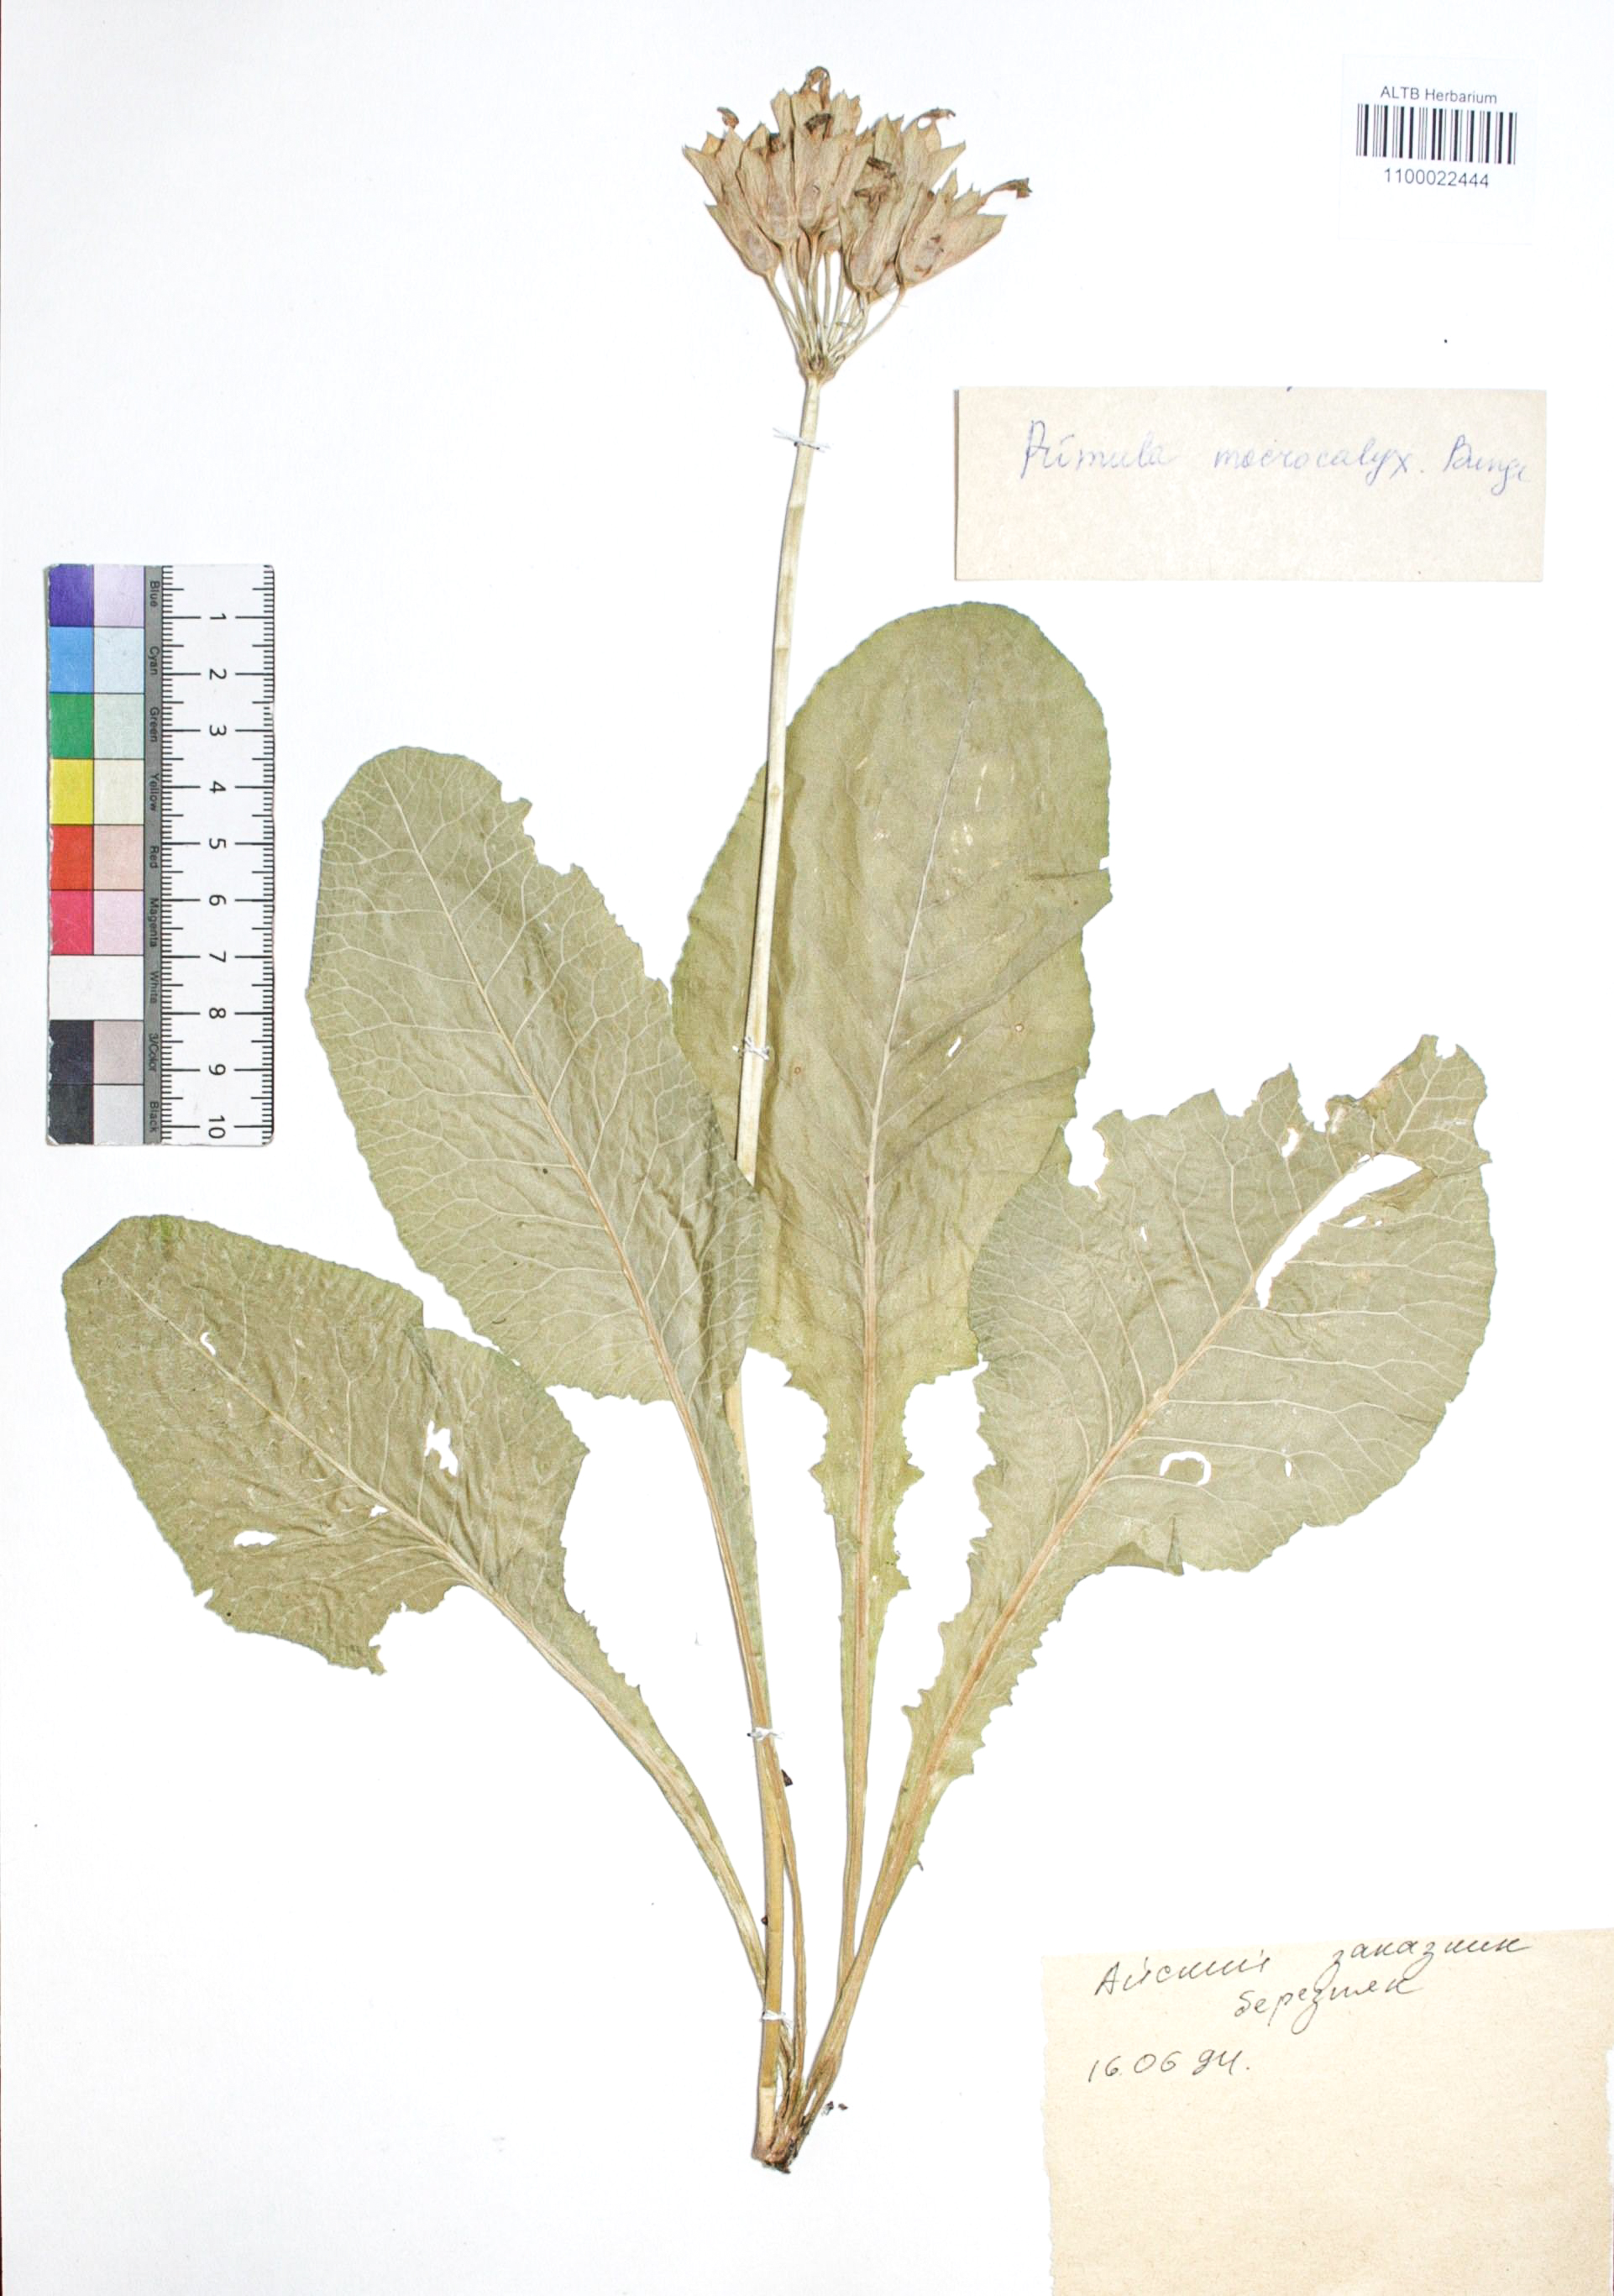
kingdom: Plantae
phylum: Tracheophyta
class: Magnoliopsida
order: Ericales
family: Primulaceae
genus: Primula
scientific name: Primula veris
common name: Cowslip
